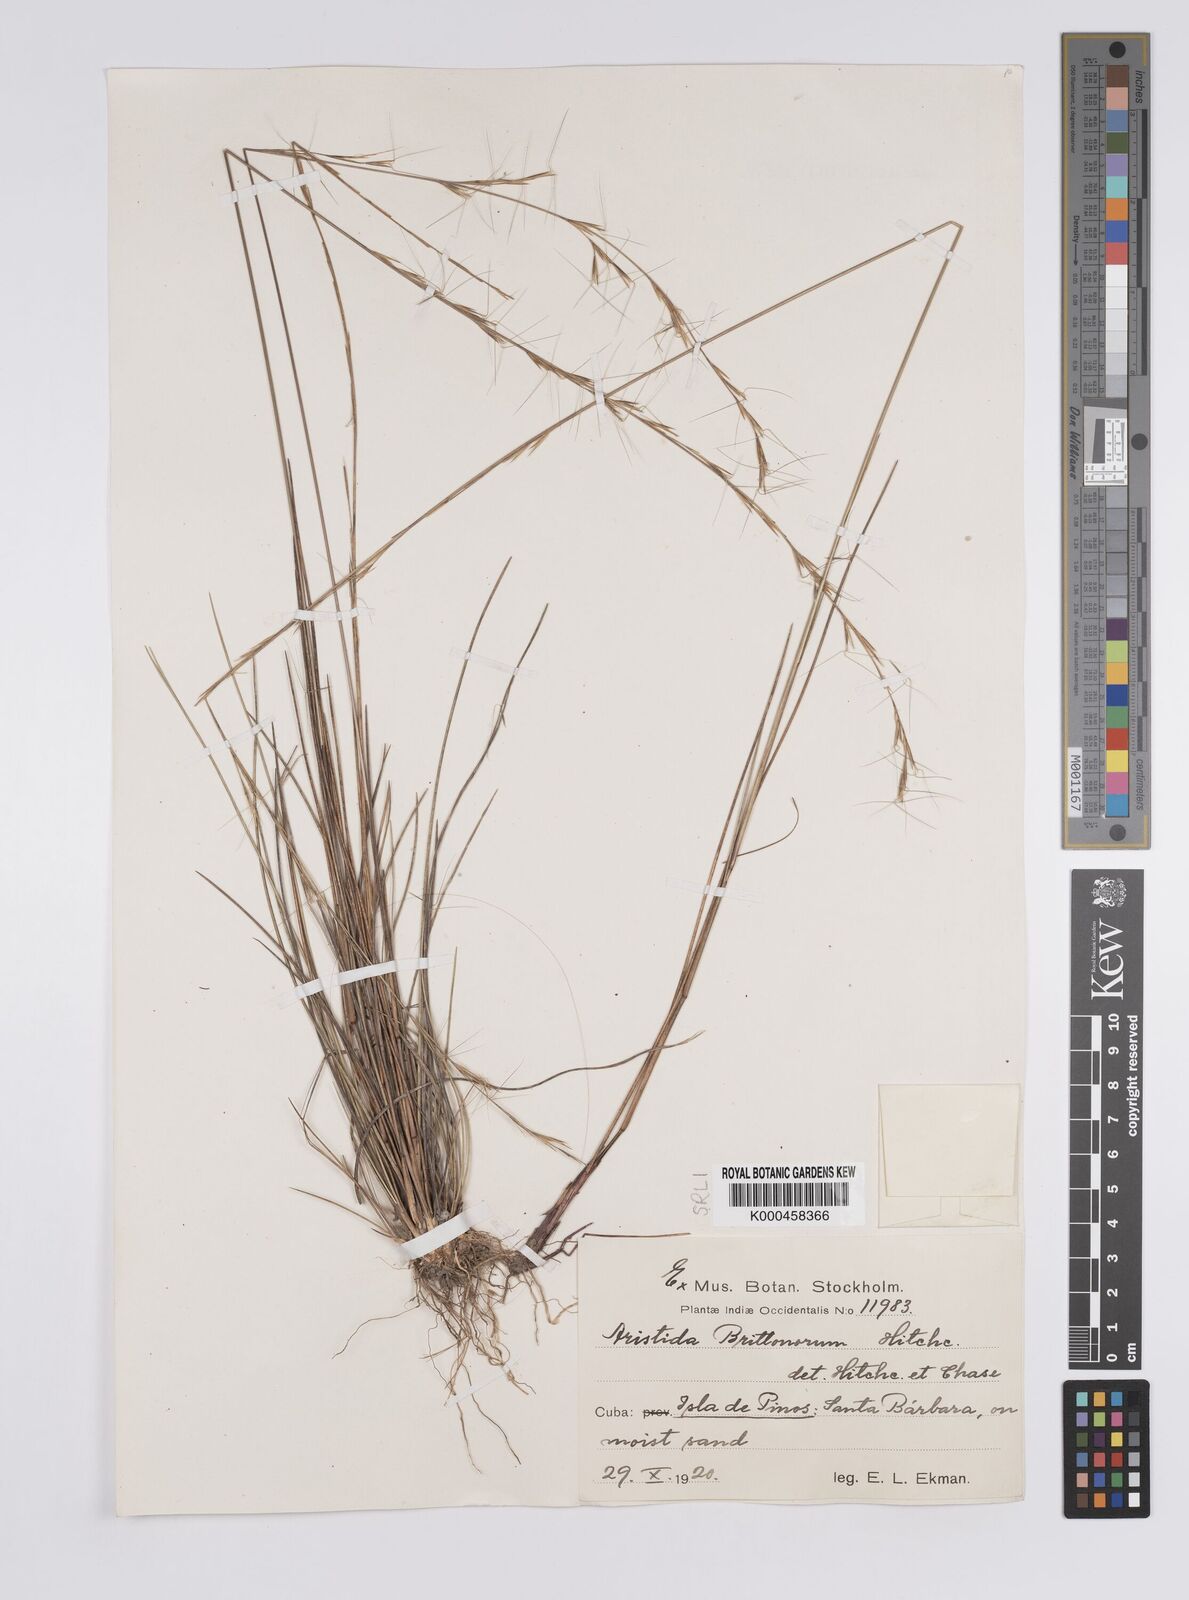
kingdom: Plantae
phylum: Tracheophyta
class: Liliopsida
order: Poales
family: Poaceae
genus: Aristida
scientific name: Aristida brittonorum
